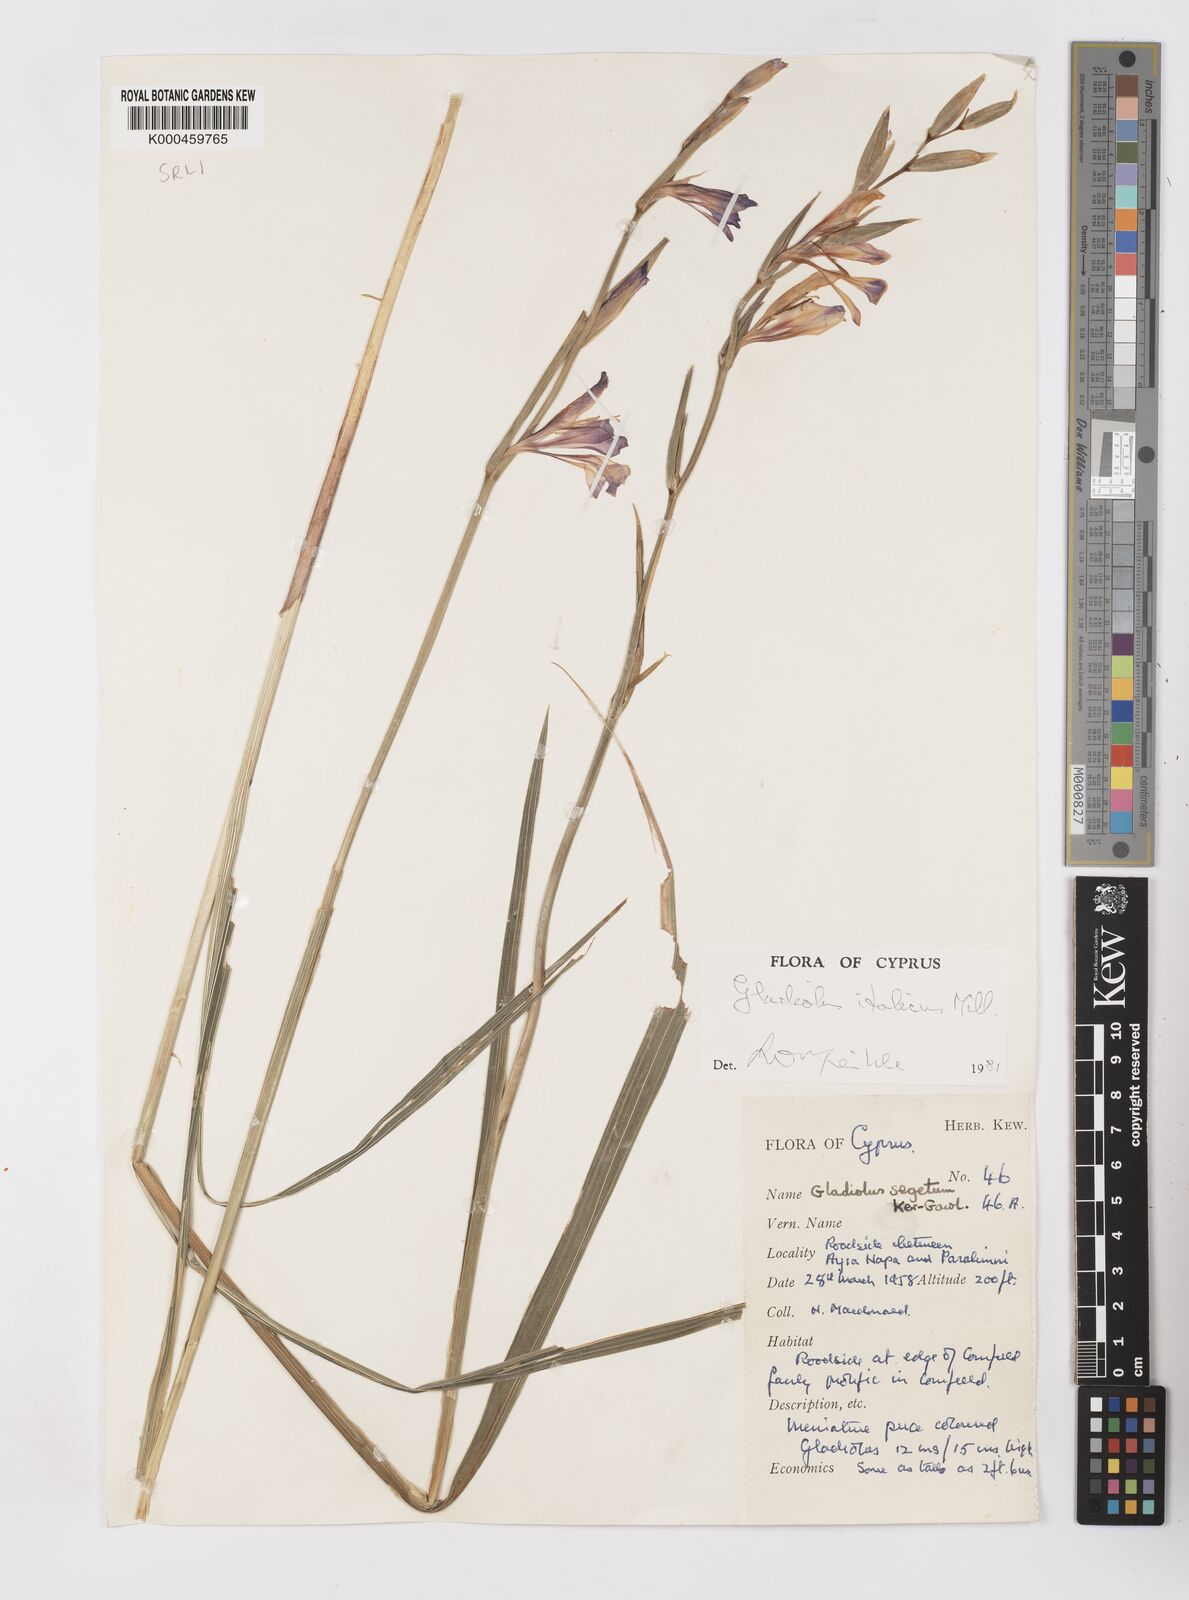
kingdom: Plantae
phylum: Tracheophyta
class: Liliopsida
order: Asparagales
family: Iridaceae
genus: Gladiolus
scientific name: Gladiolus italicus
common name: Field gladiolus
